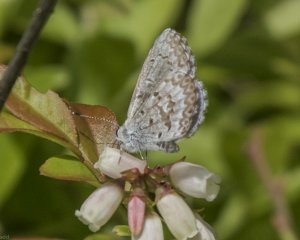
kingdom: Animalia
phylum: Arthropoda
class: Insecta
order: Lepidoptera
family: Lycaenidae
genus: Glaucopsyche
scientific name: Glaucopsyche lygdamus
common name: Silvery Blue
